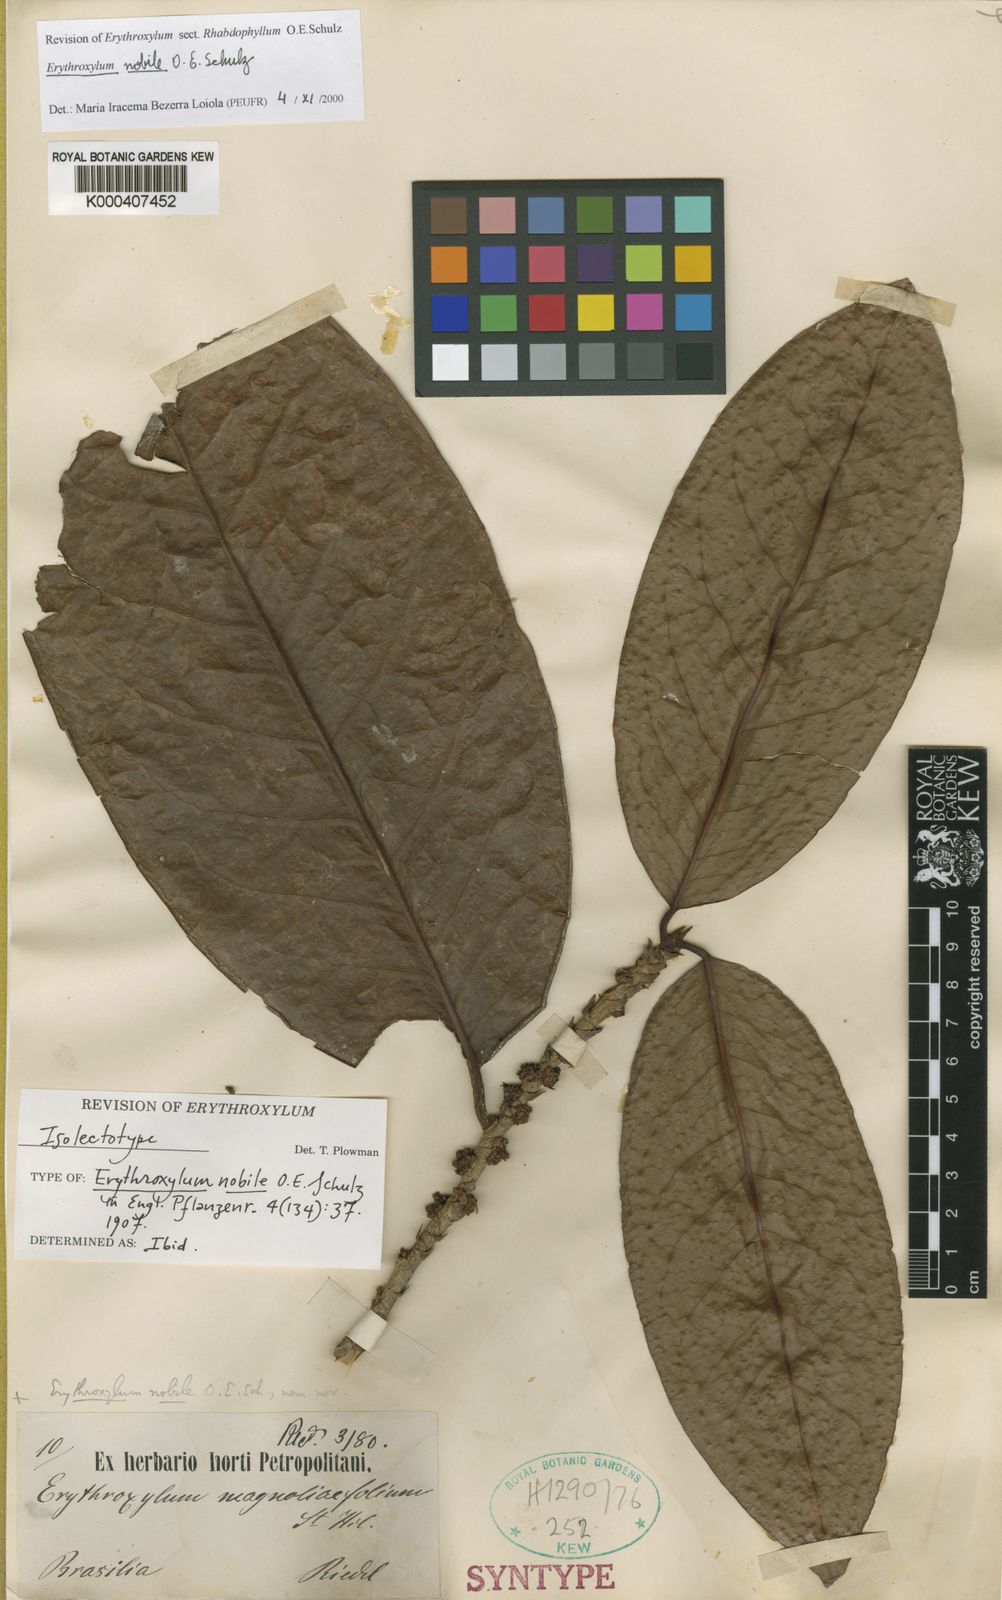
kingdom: Plantae
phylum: Tracheophyta
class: Magnoliopsida
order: Malpighiales
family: Erythroxylaceae
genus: Erythroxylum
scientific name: Erythroxylum nobile
